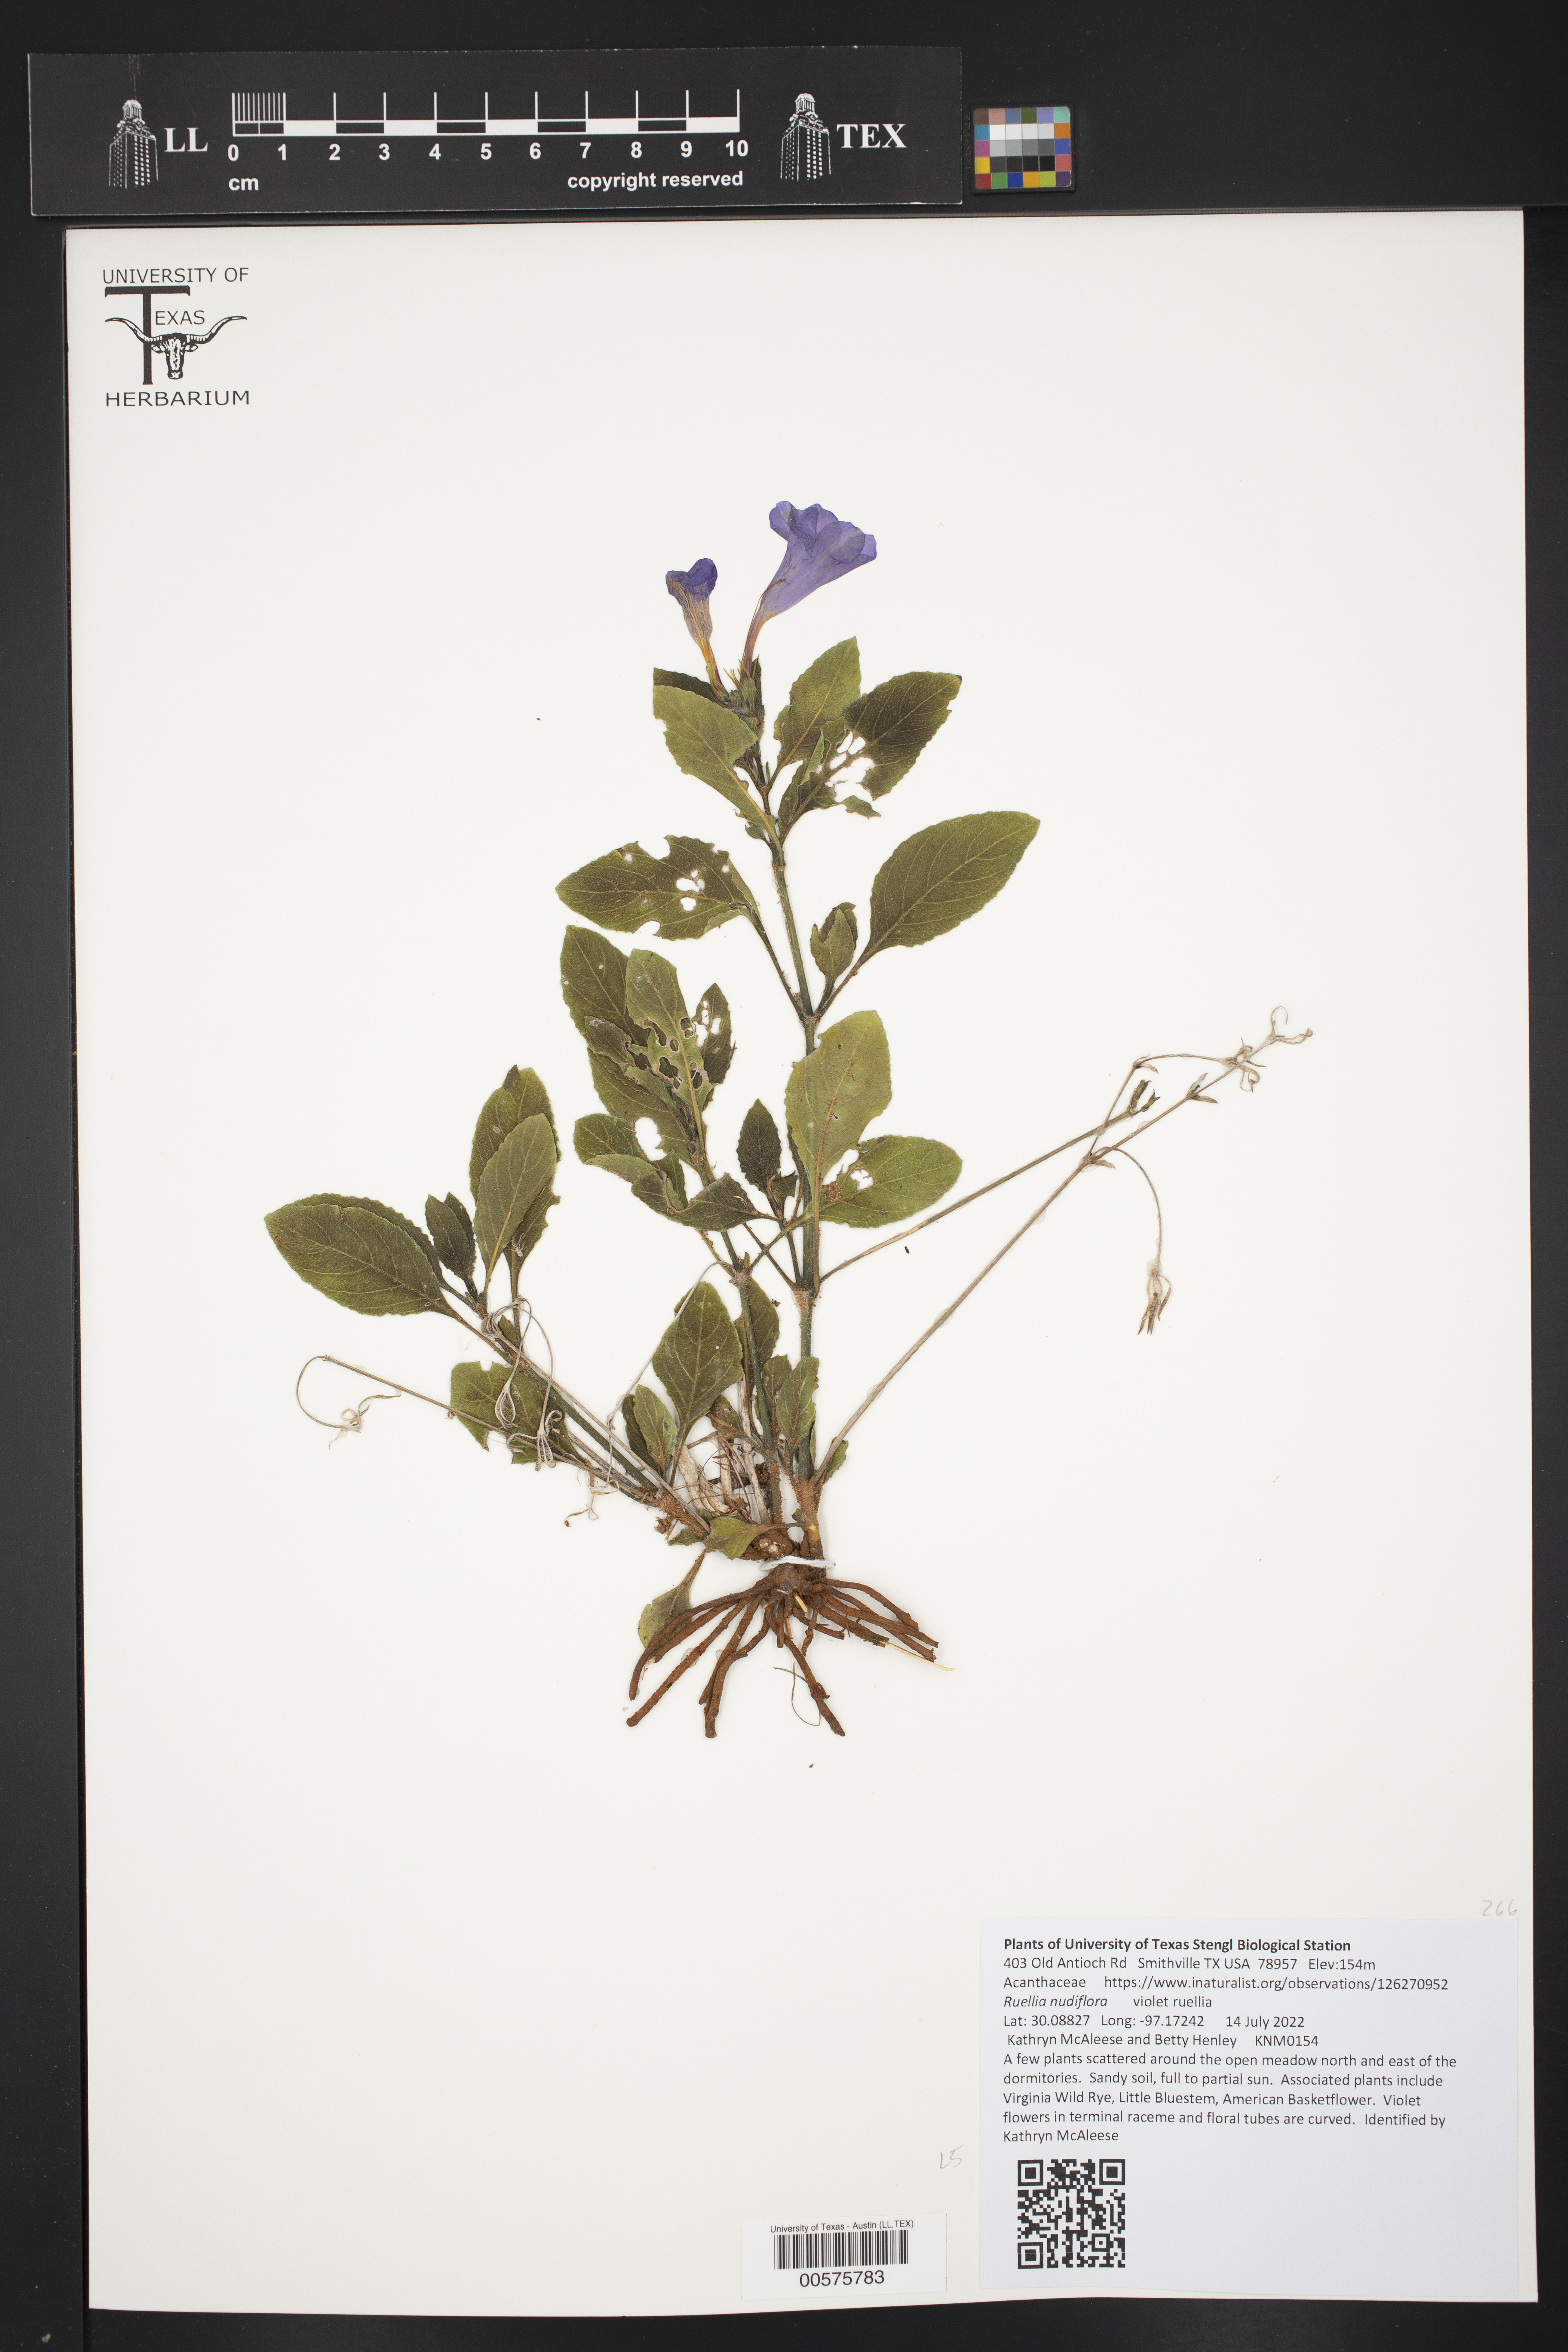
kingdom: Plantae
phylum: Tracheophyta
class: Magnoliopsida
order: Lamiales
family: Acanthaceae
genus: Ruellia
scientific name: Ruellia ciliatiflora
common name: Hairyflower wild petunia
